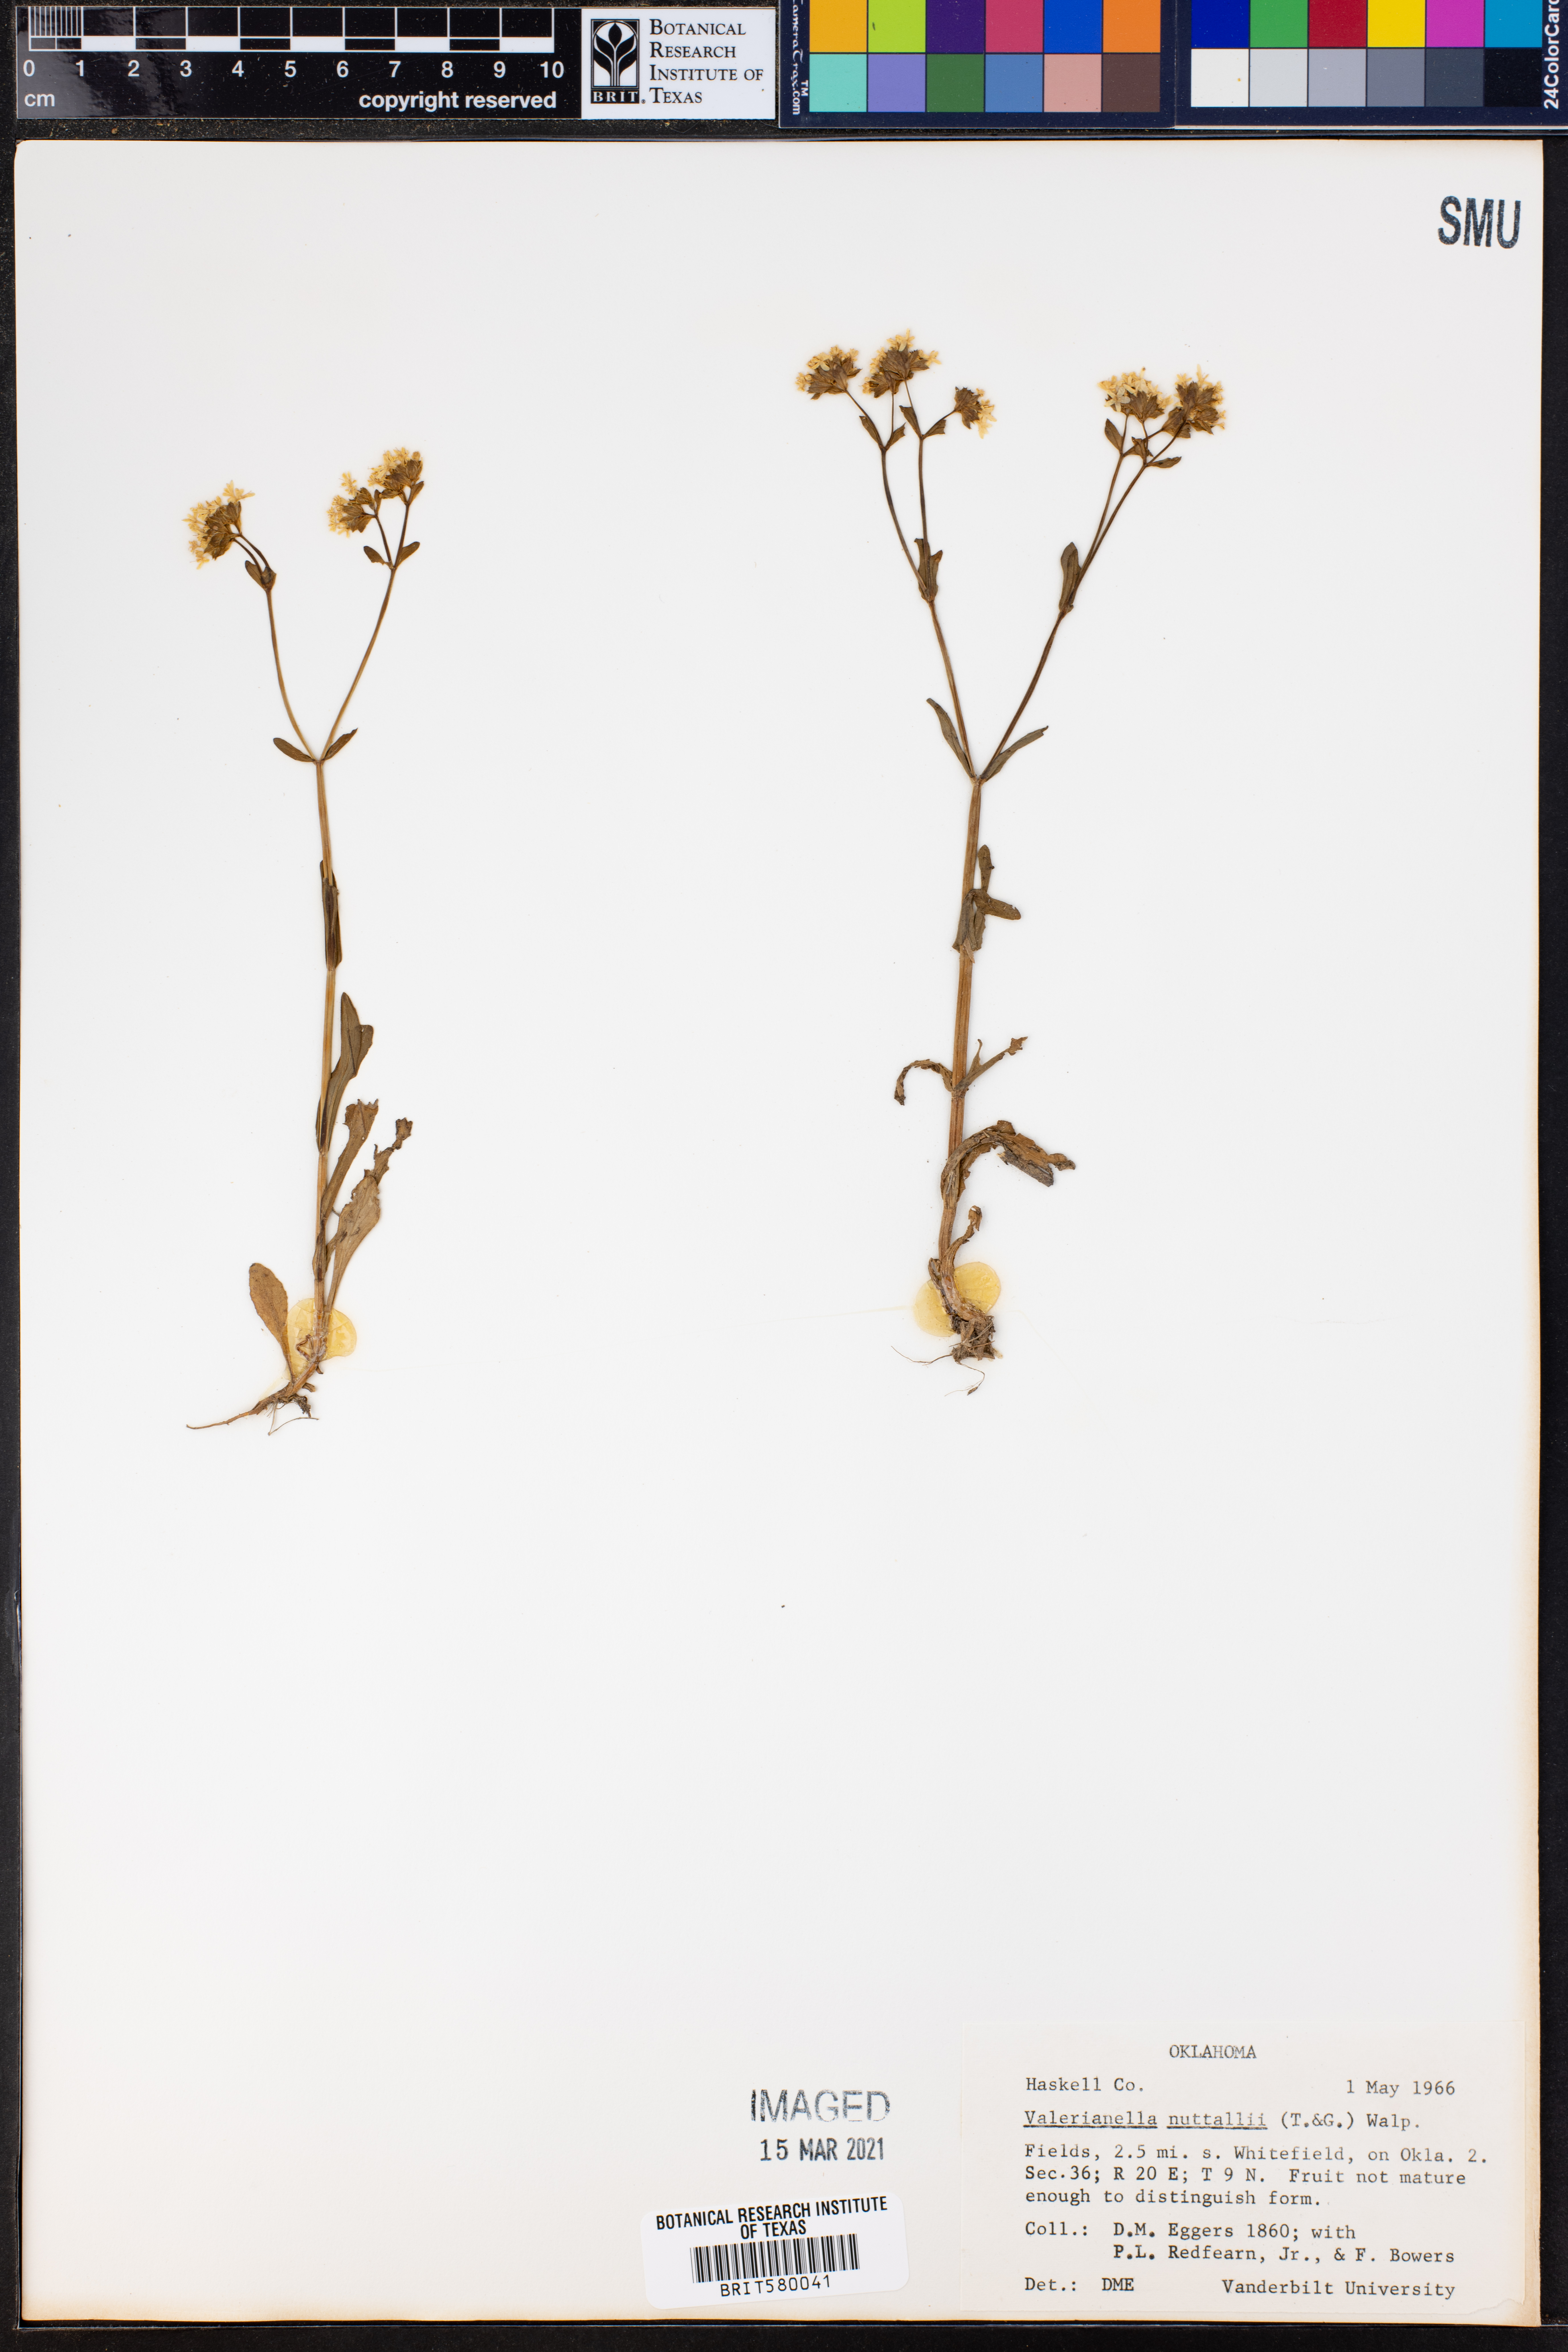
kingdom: Plantae
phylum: Tracheophyta
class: Magnoliopsida
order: Dipsacales
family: Caprifoliaceae
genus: Valerianella
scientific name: Valerianella nuttallii
